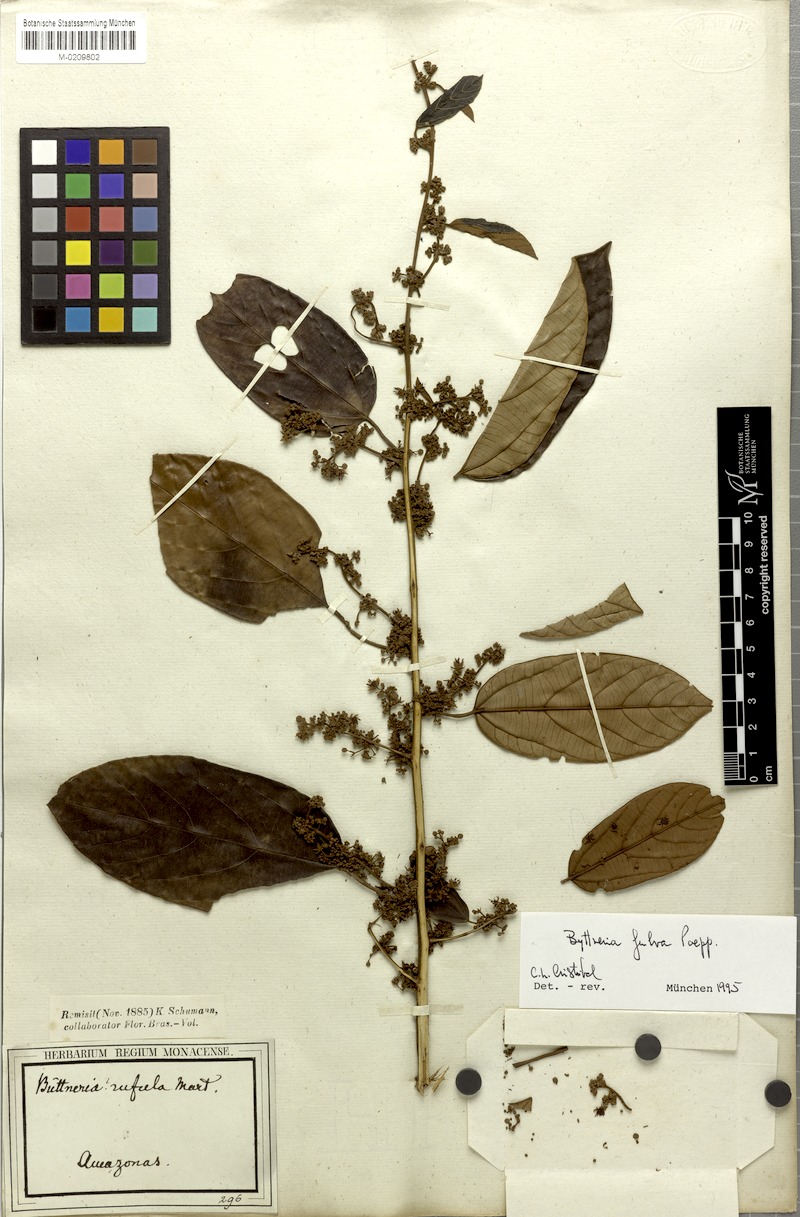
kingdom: Plantae
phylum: Tracheophyta
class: Magnoliopsida
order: Malvales
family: Malvaceae
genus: Byttneria
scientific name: Byttneria fulva
